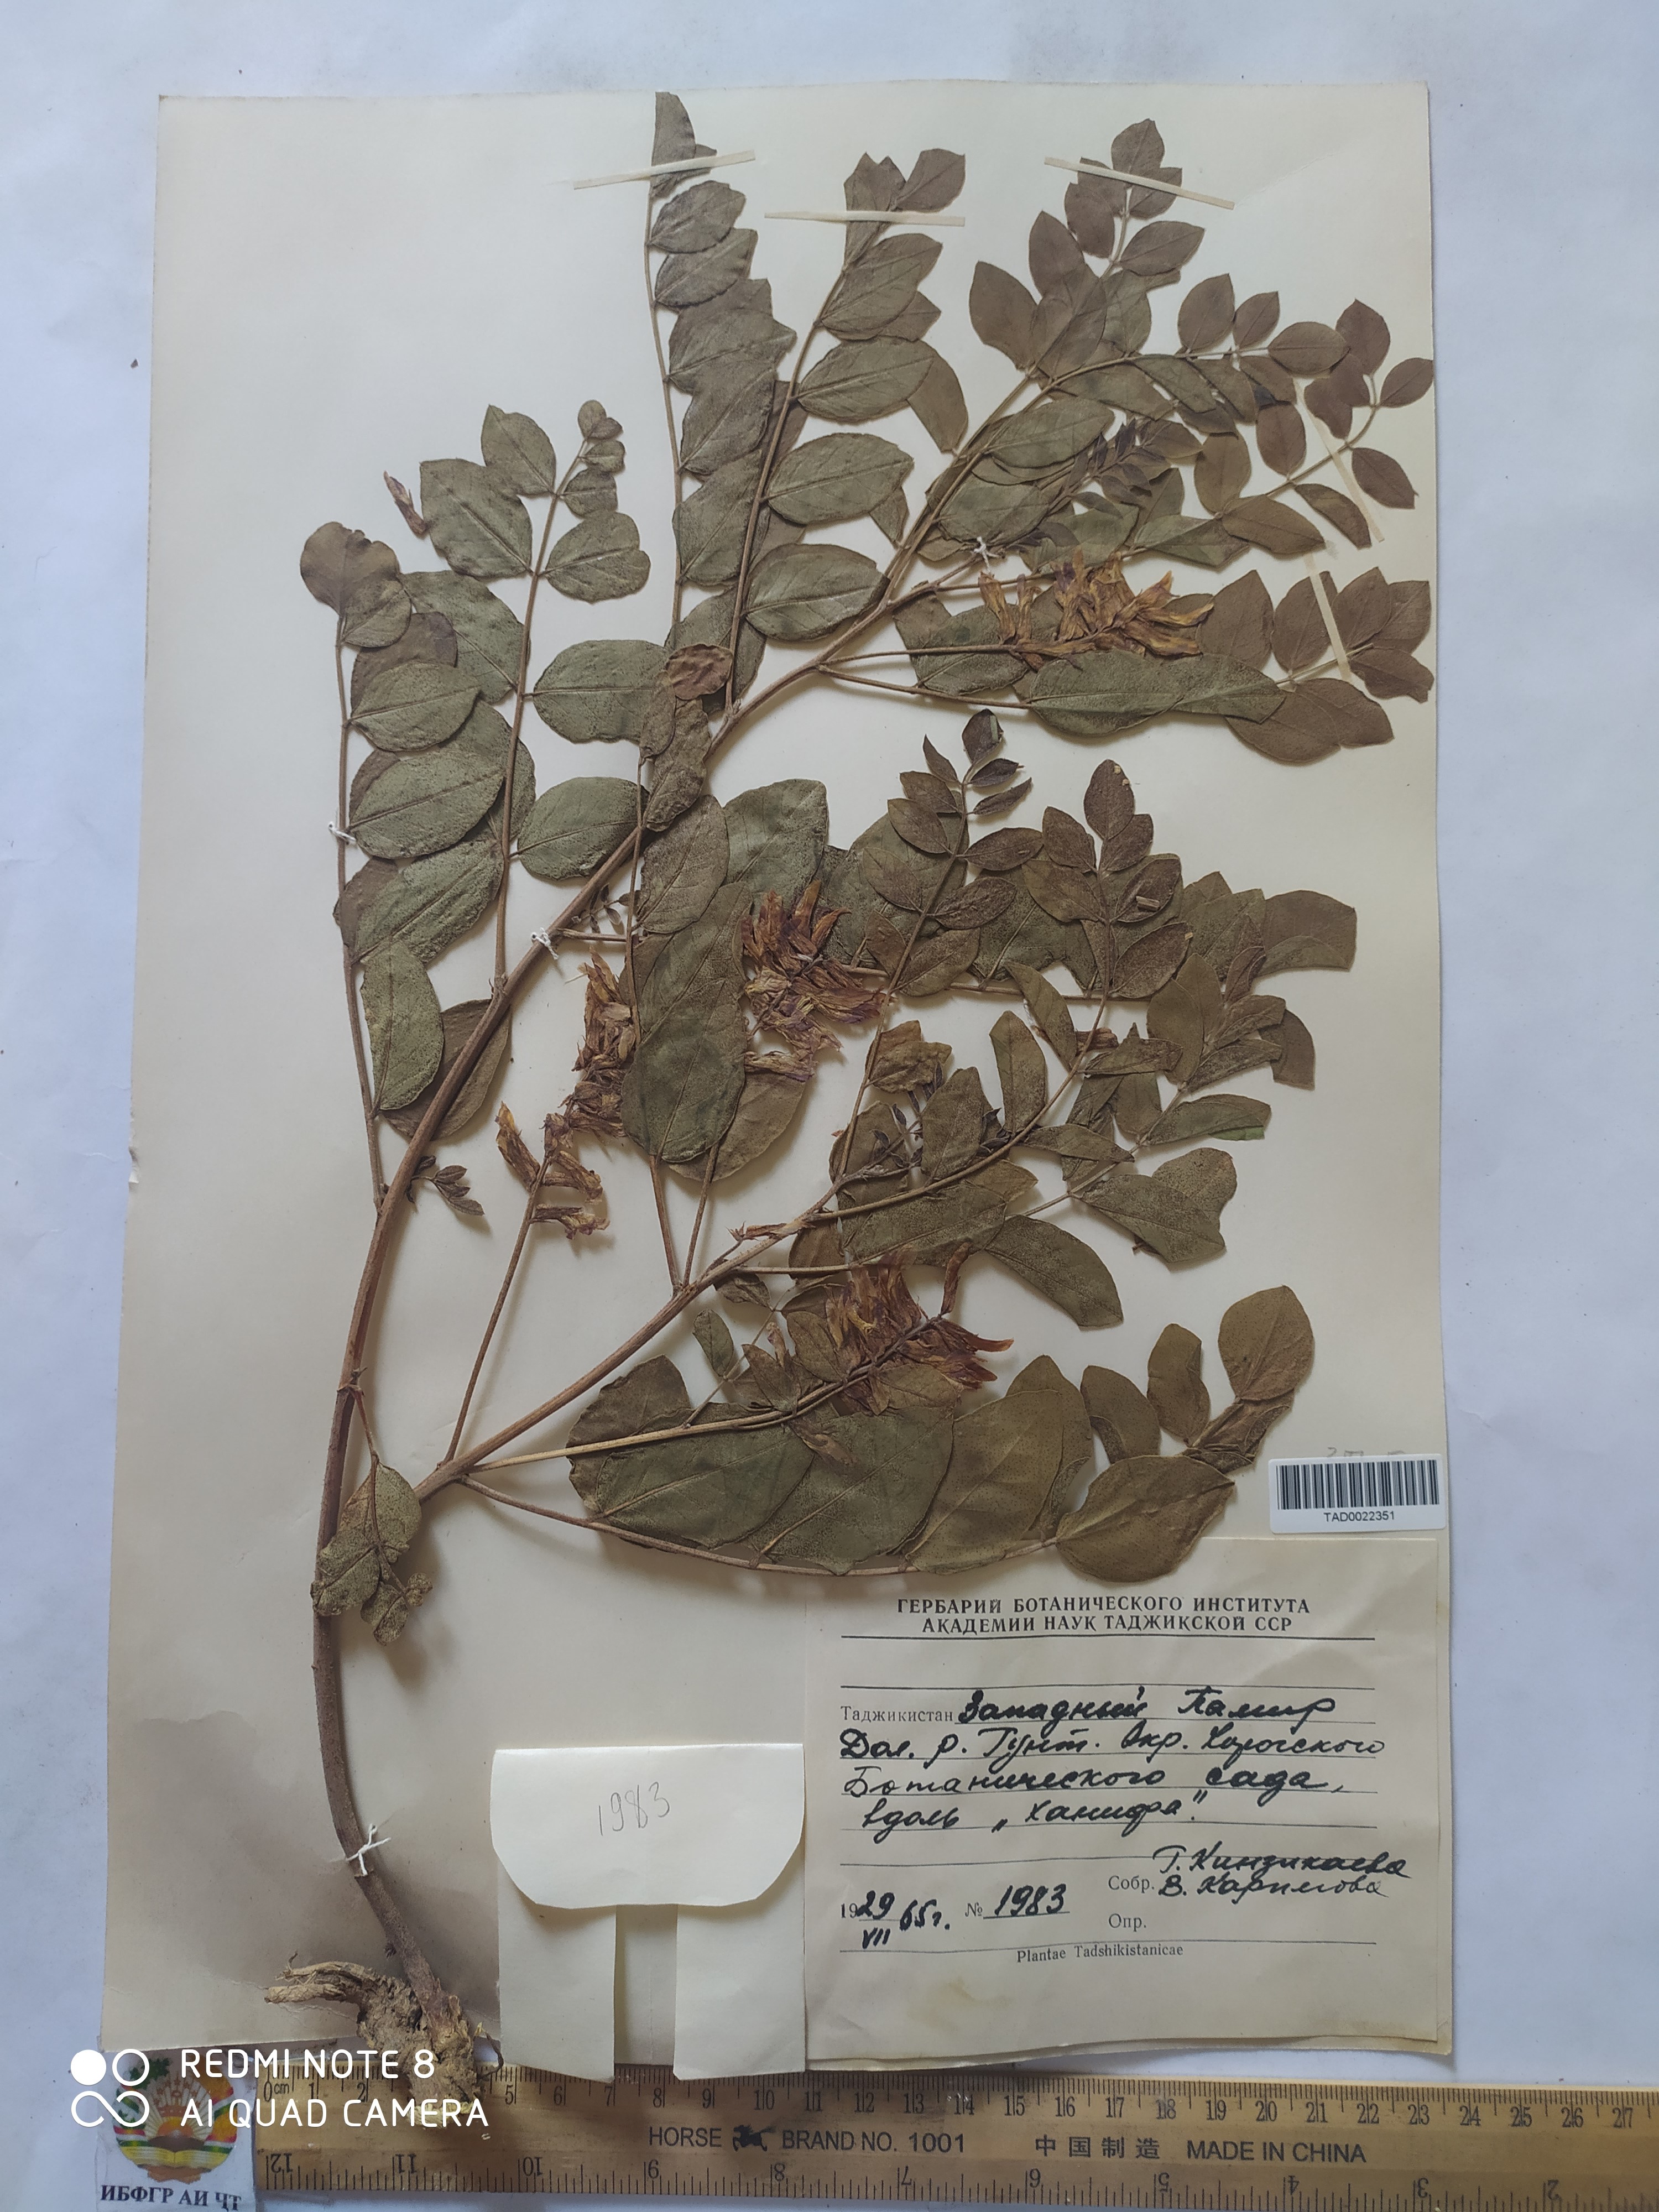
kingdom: Plantae
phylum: Tracheophyta
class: Magnoliopsida
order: Fabales
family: Fabaceae
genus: Glycyrrhiza
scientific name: Glycyrrhiza uralensis
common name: Chinese licorice
